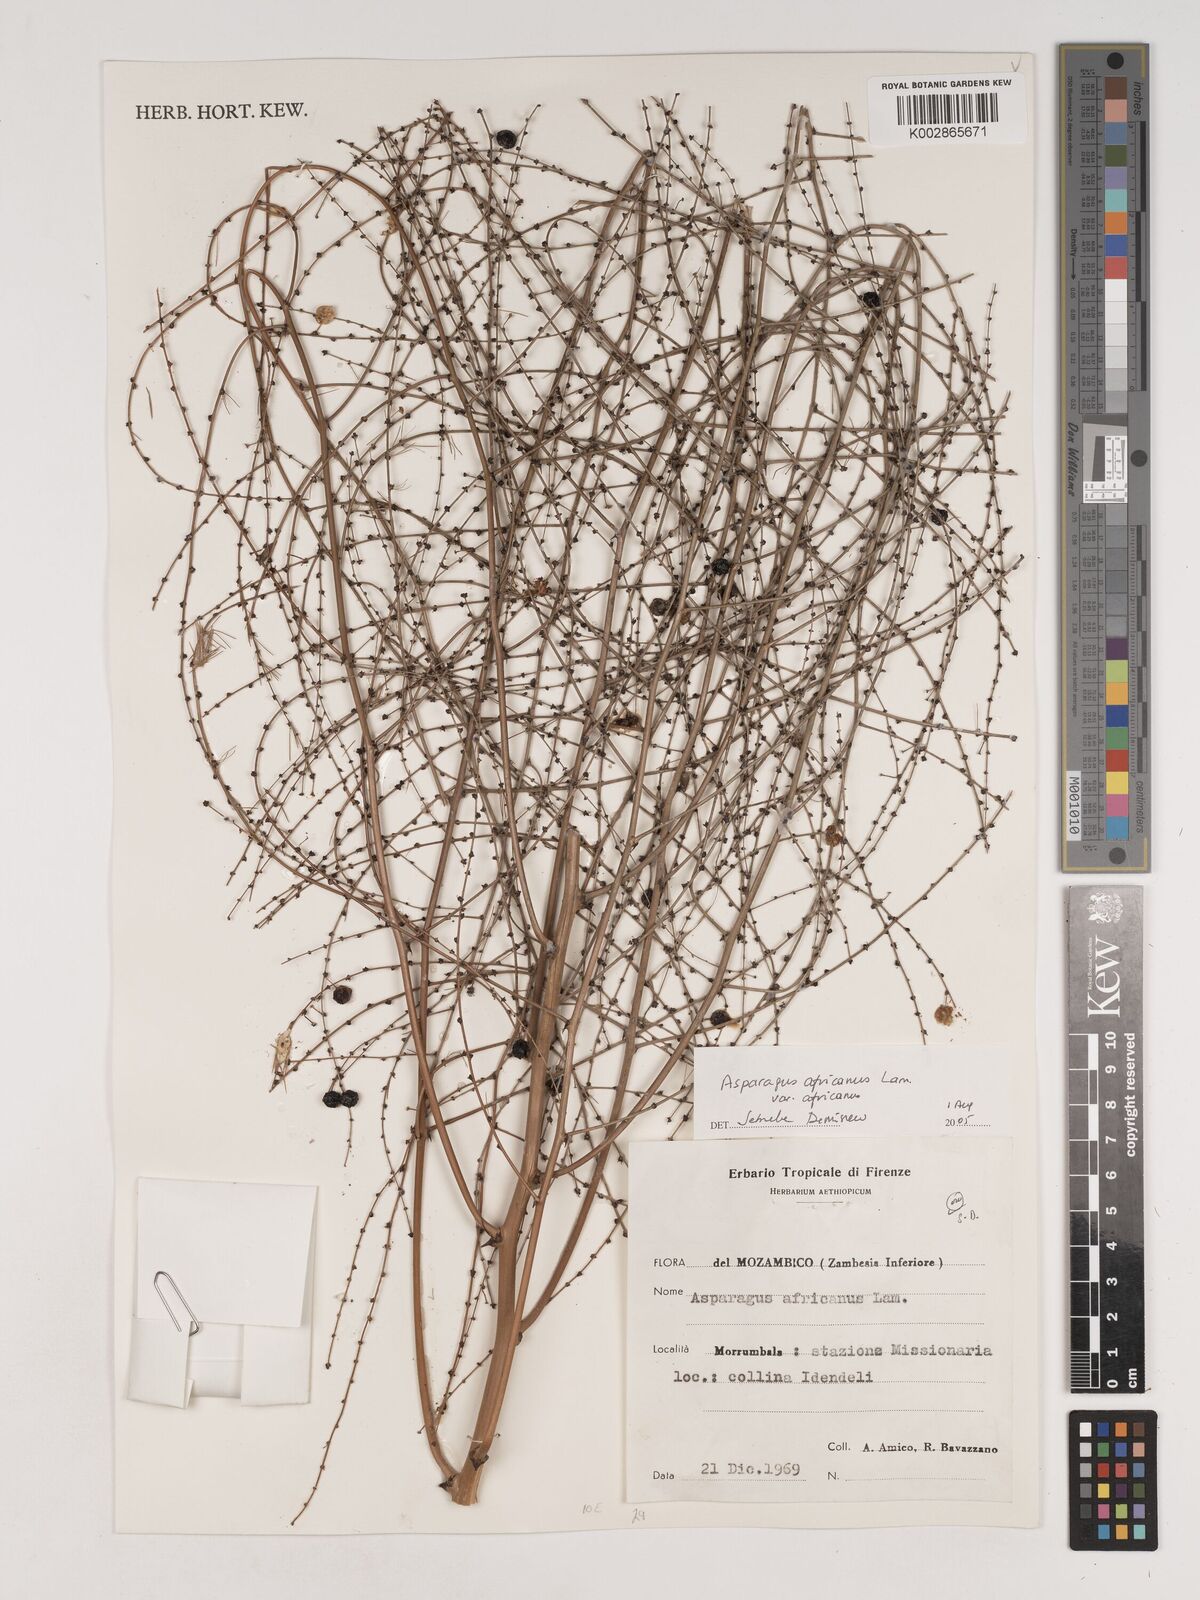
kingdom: Plantae
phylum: Tracheophyta
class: Liliopsida
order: Asparagales
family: Asparagaceae
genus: Asparagus
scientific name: Asparagus africanus
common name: Asparagus-fern
